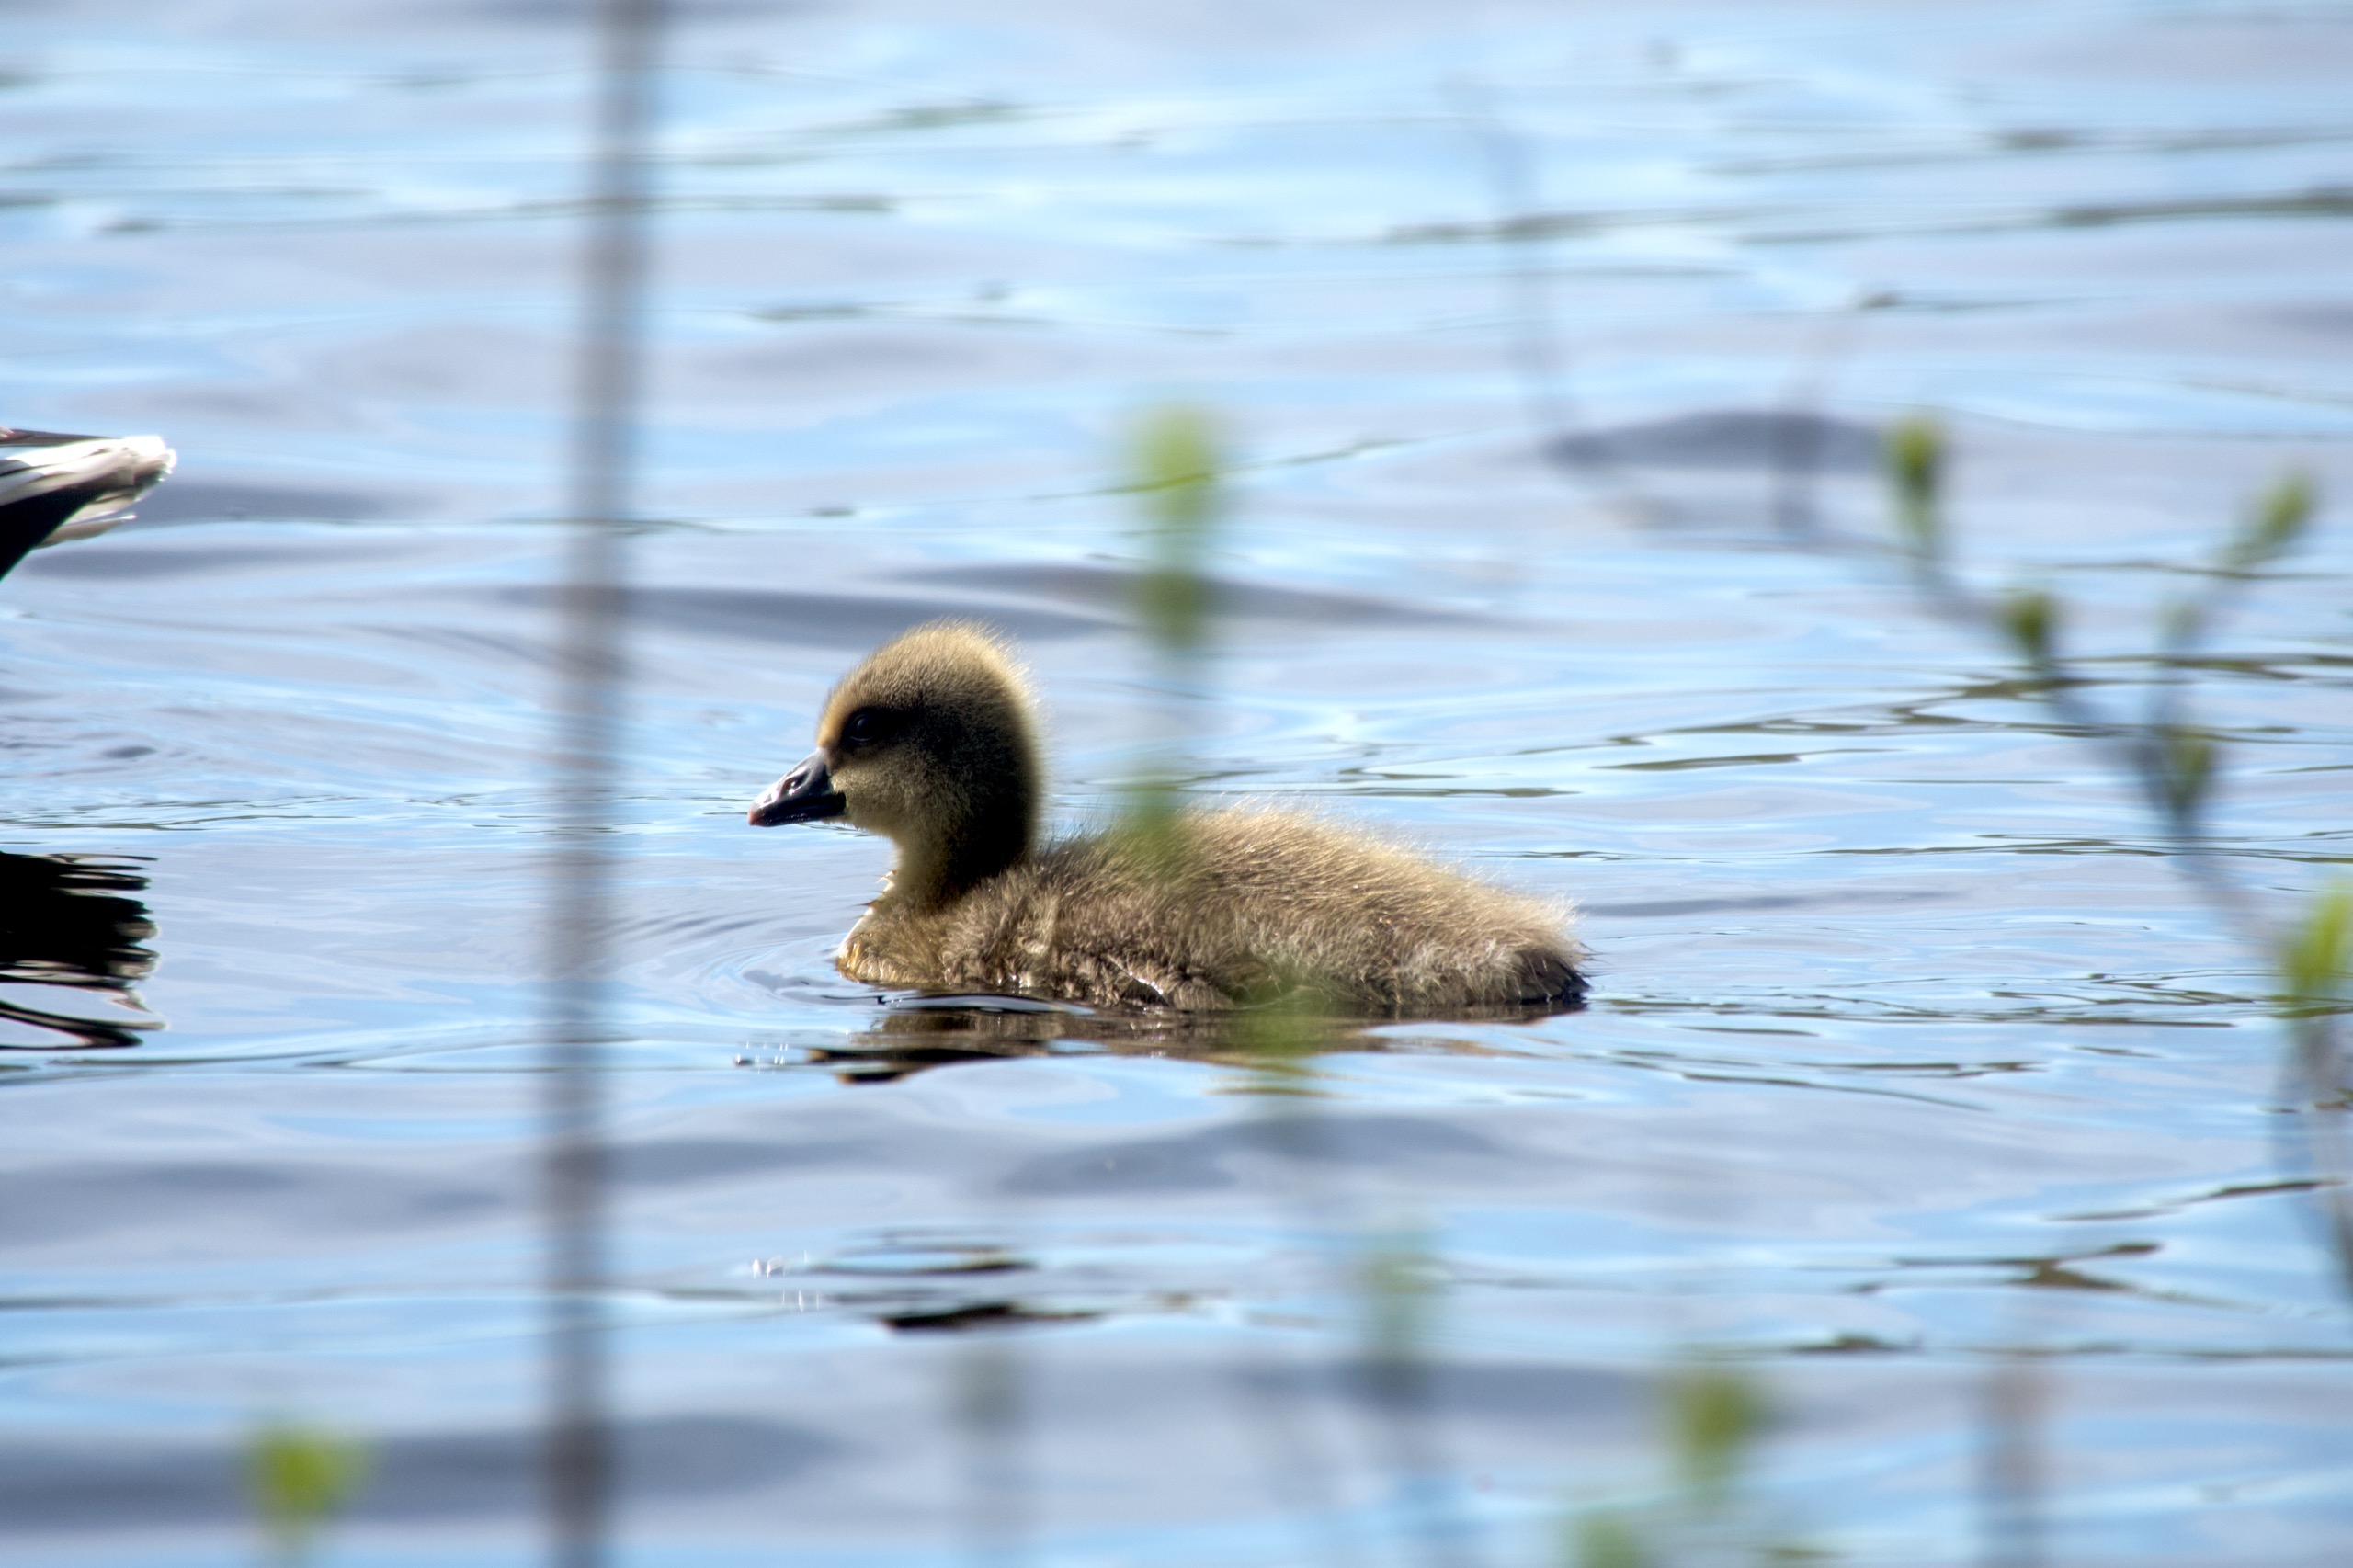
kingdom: Animalia
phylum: Chordata
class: Aves
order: Anseriformes
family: Anatidae
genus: Anser
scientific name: Anser anser
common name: Grågås
